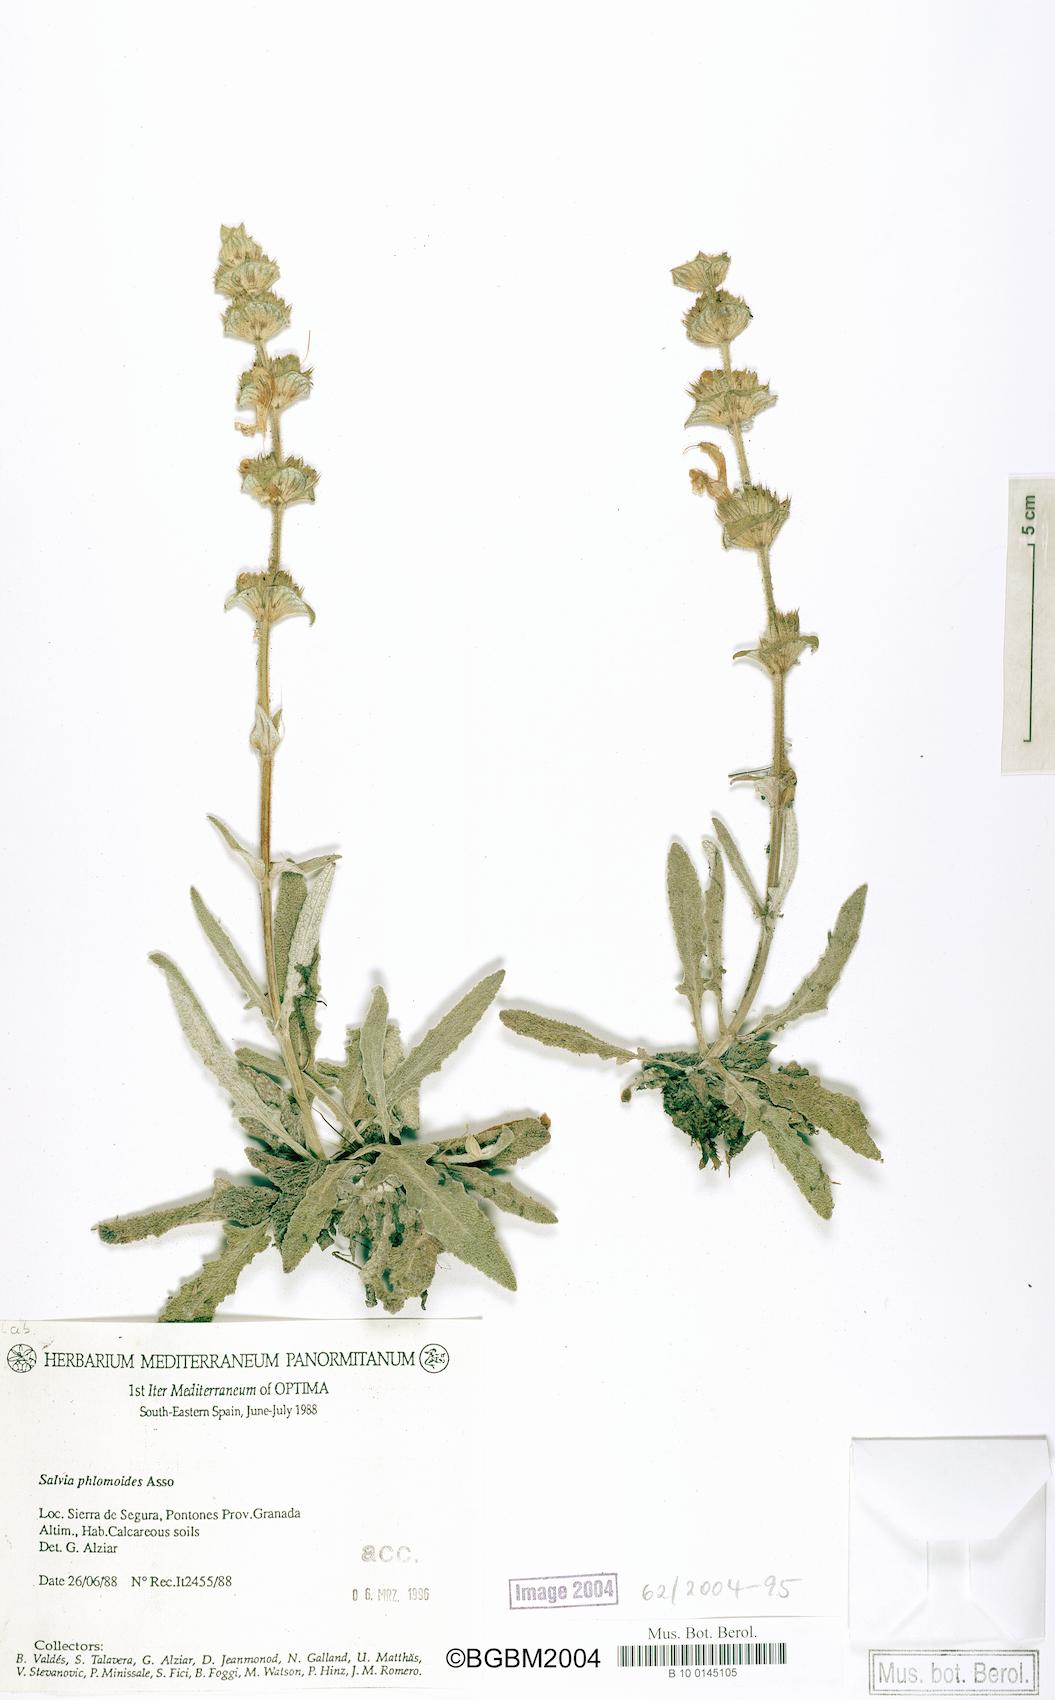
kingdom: Plantae
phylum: Tracheophyta
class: Magnoliopsida
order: Lamiales
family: Lamiaceae
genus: Salvia
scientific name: Salvia phlomoides
